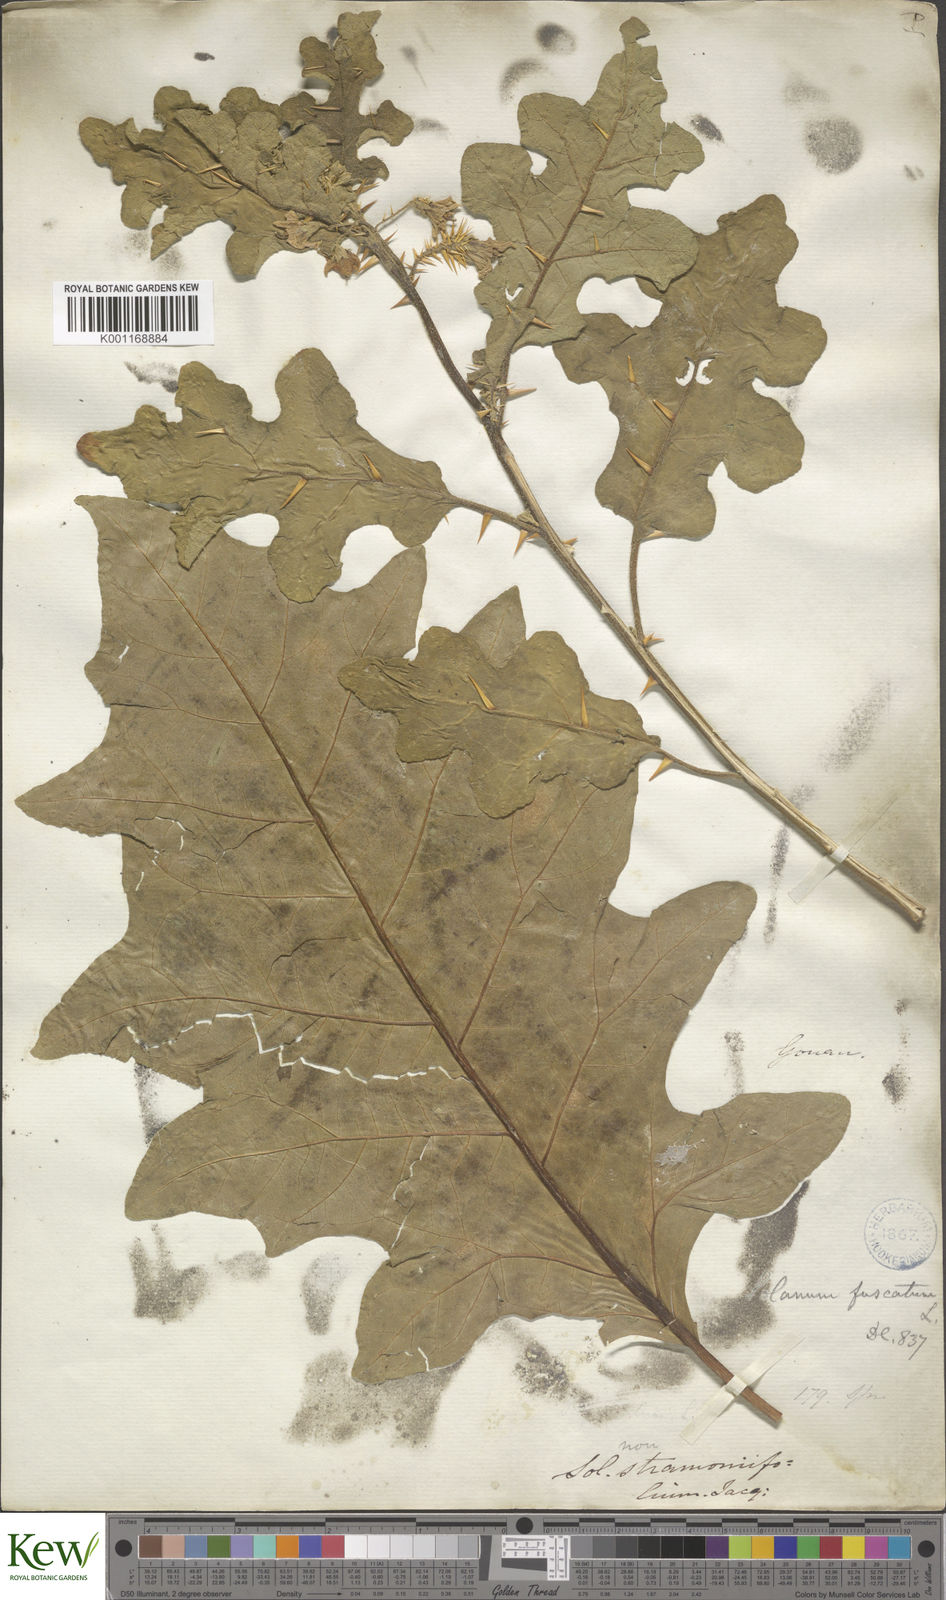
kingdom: Plantae
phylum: Tracheophyta
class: Magnoliopsida
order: Solanales
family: Solanaceae
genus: Solanum
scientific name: Solanum insanum
